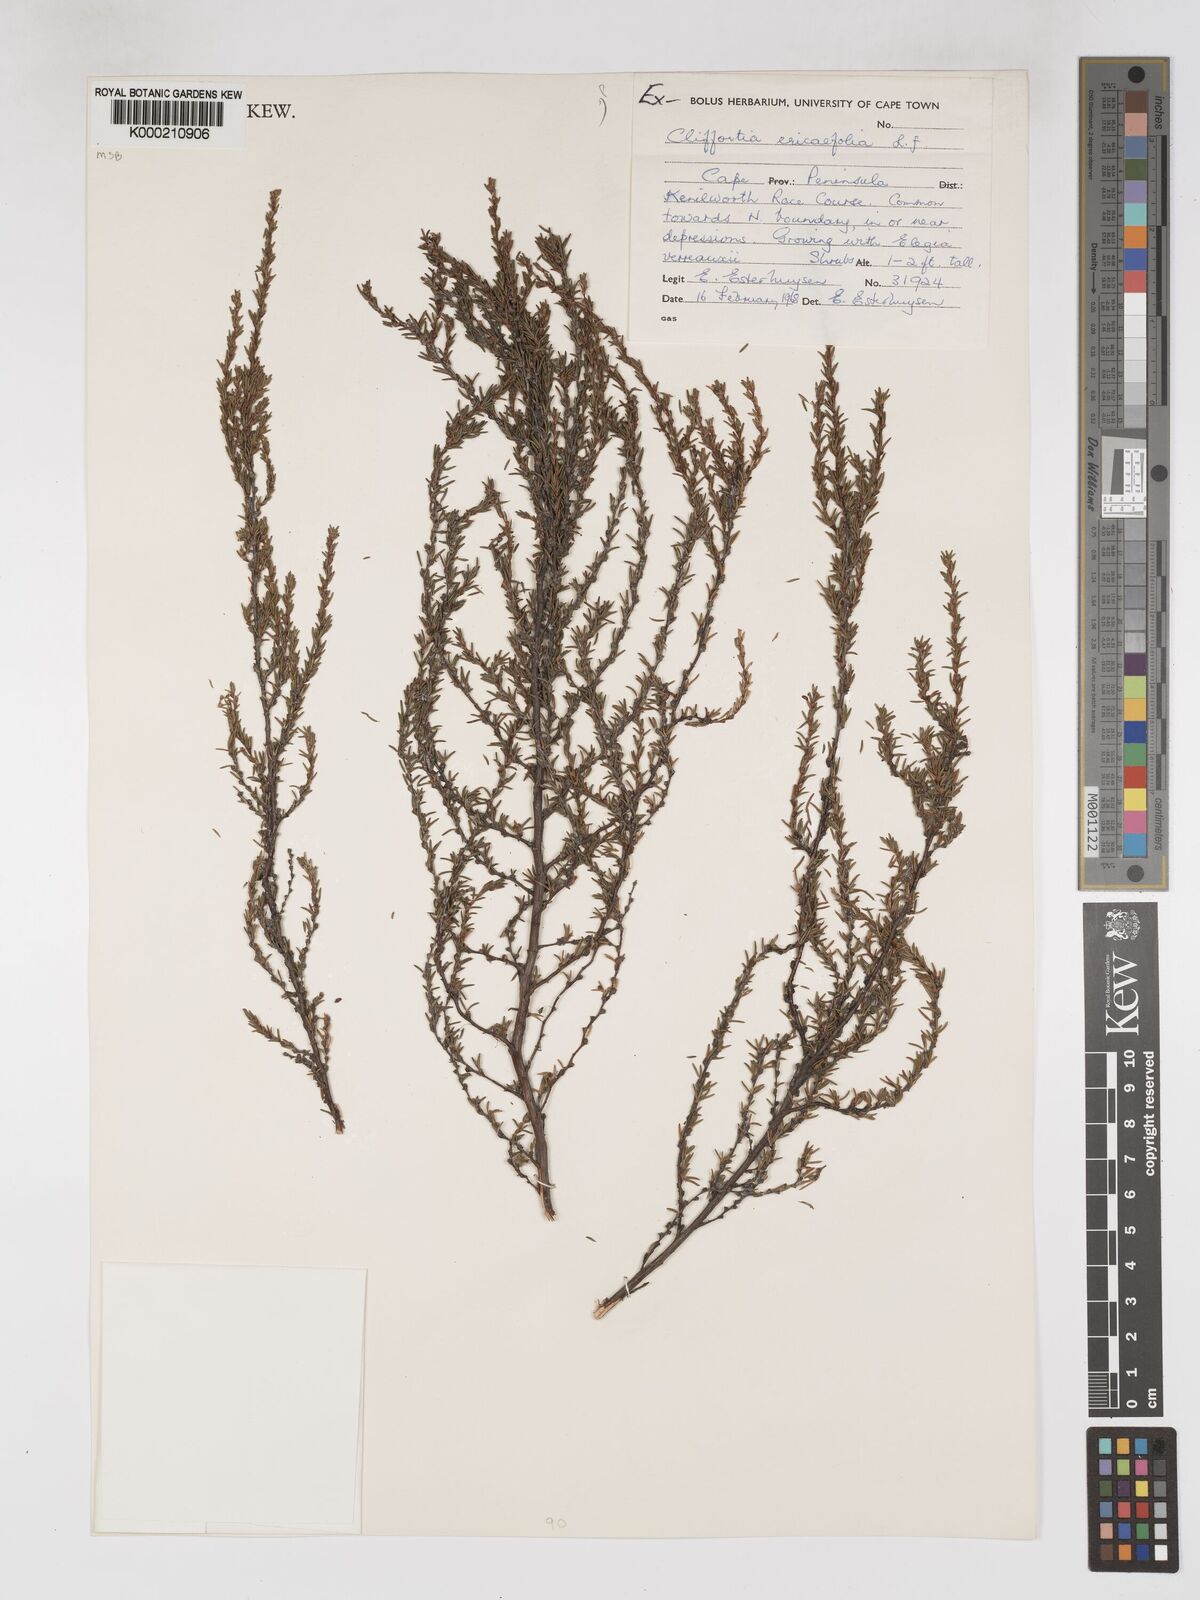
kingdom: Plantae
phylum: Tracheophyta
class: Magnoliopsida
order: Rosales
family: Rosaceae
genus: Cliffortia
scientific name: Cliffortia ericifolia
